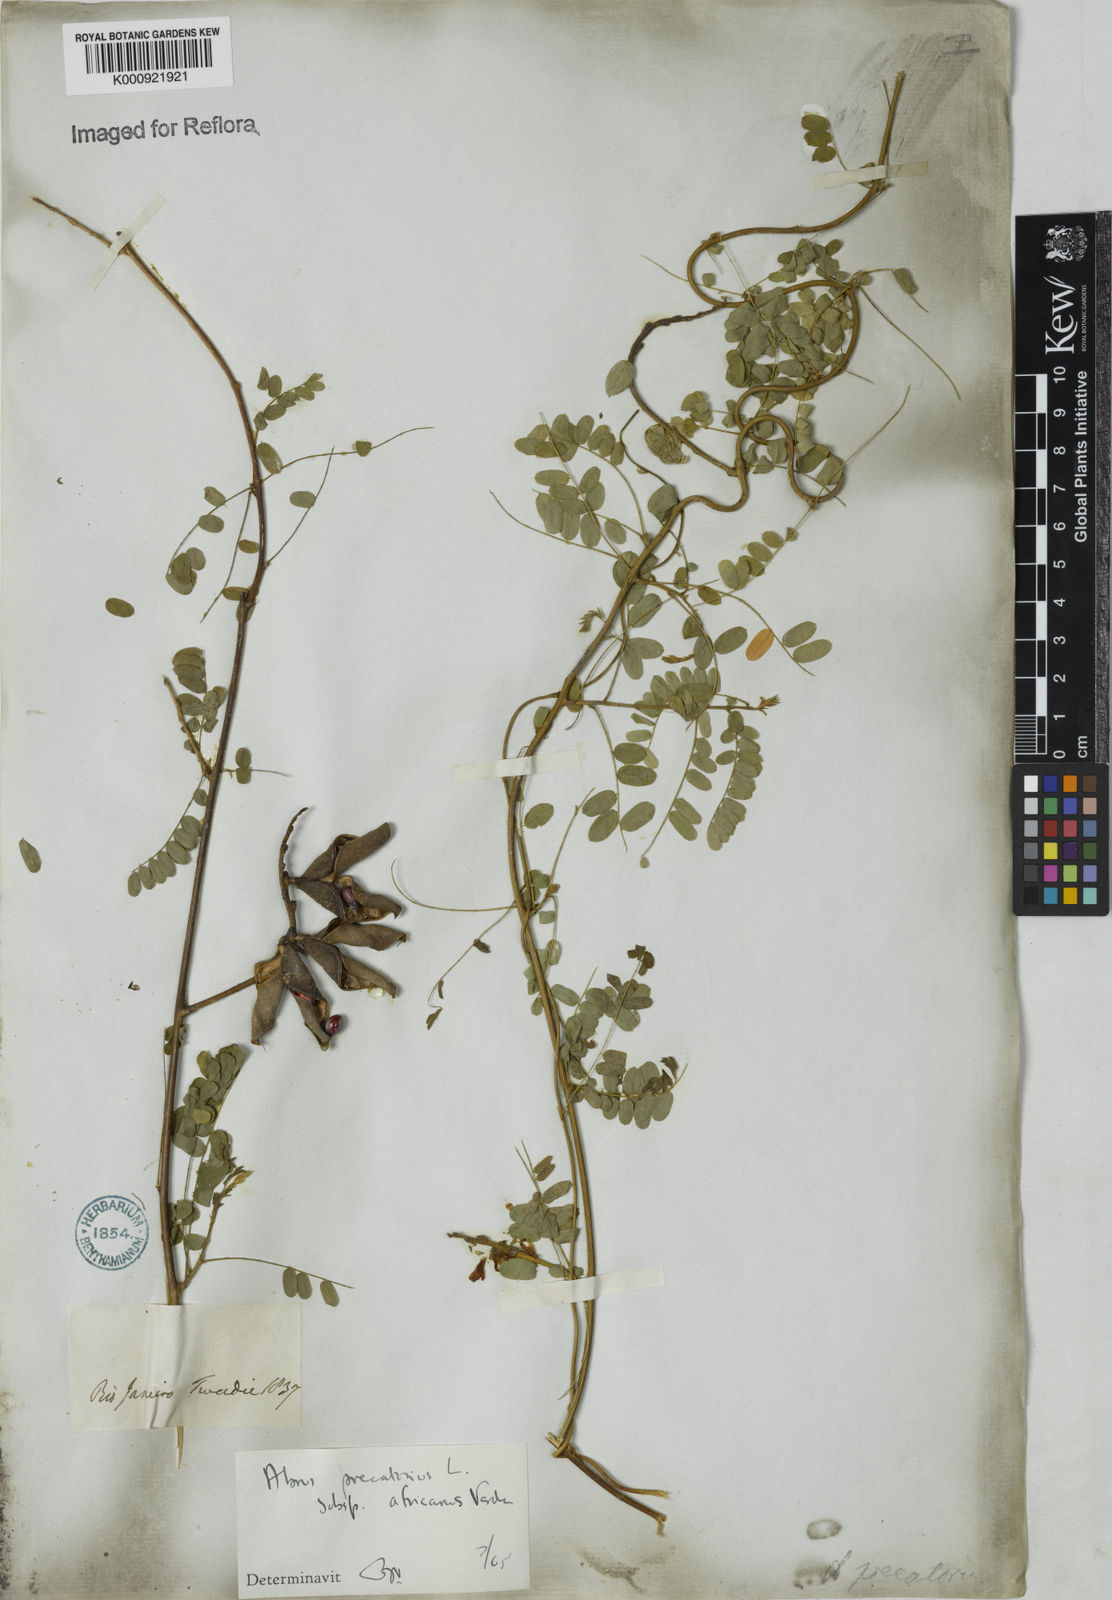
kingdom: Plantae
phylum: Tracheophyta
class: Magnoliopsida
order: Fabales
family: Fabaceae
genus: Abrus
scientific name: Abrus precatorius
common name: Rosarypea
